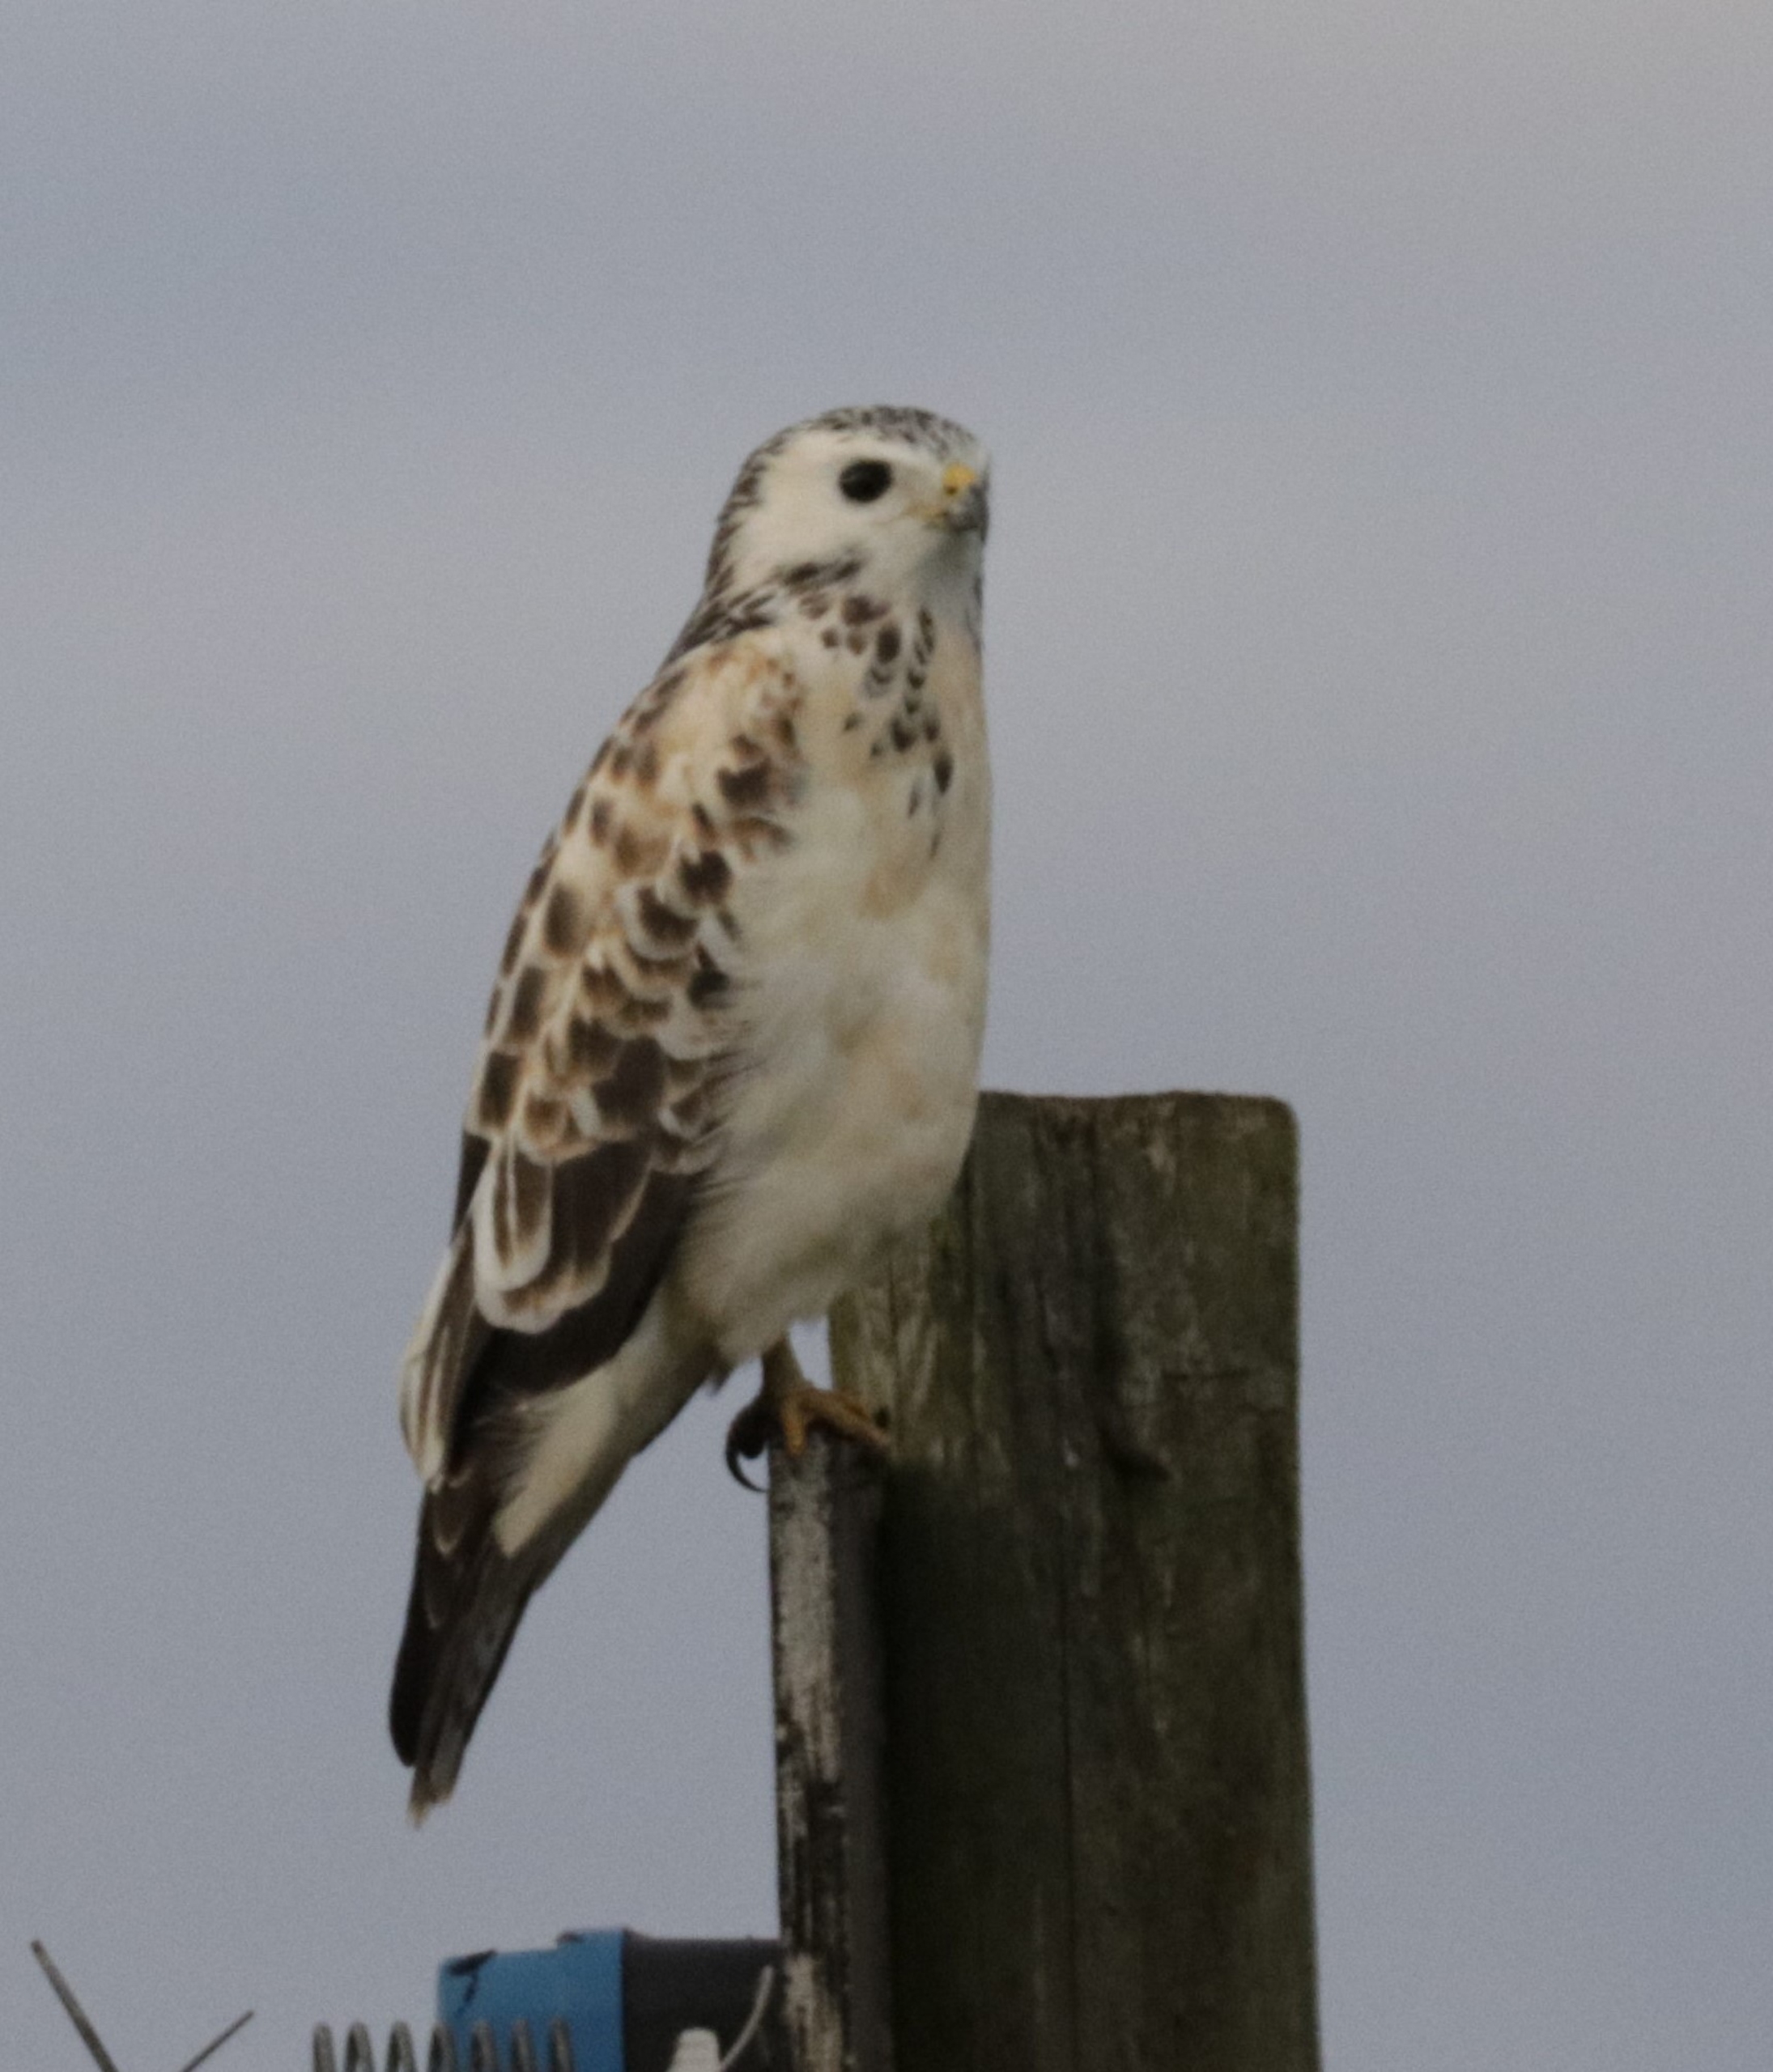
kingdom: Animalia
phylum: Chordata
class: Aves
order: Accipitriformes
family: Accipitridae
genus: Buteo
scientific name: Buteo buteo
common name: Musvåge
